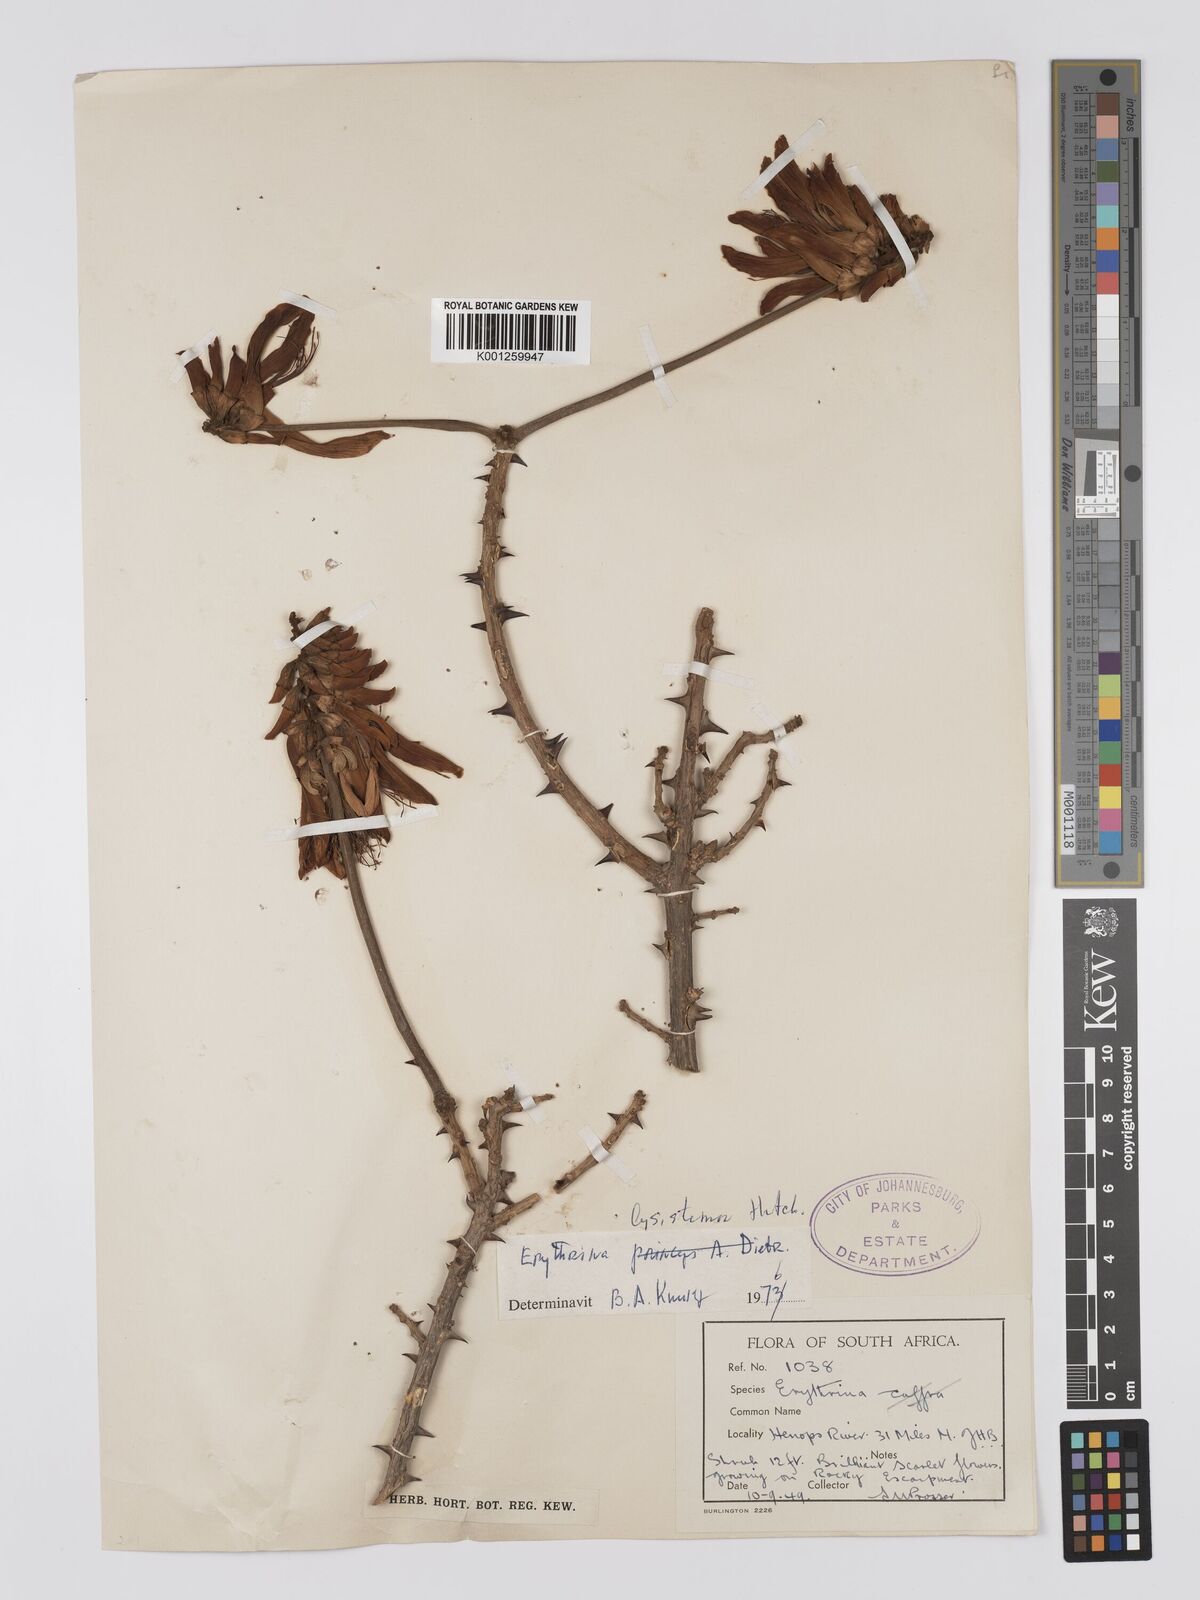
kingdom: Plantae
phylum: Tracheophyta
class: Magnoliopsida
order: Fabales
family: Fabaceae
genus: Erythrina
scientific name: Erythrina lysistemon
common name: Common coral tree
